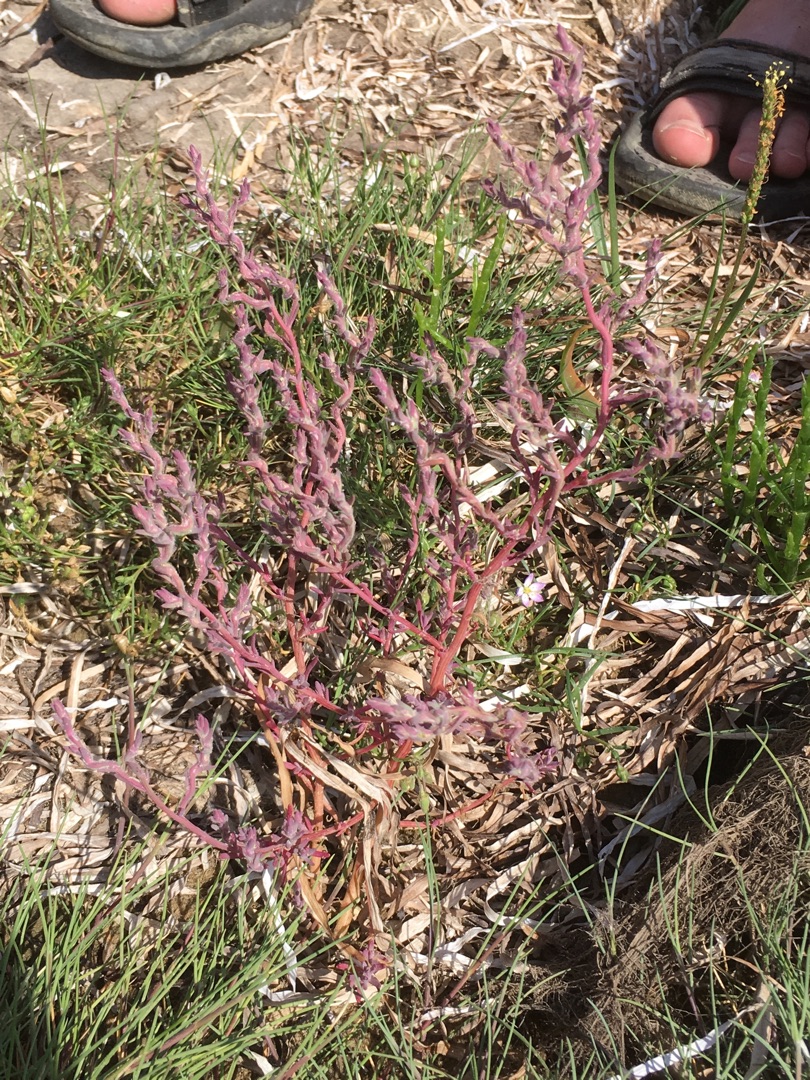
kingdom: Plantae
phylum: Tracheophyta
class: Magnoliopsida
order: Caryophyllales
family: Amaranthaceae
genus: Spirobassia
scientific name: Spirobassia hirsuta
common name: Tangurt
